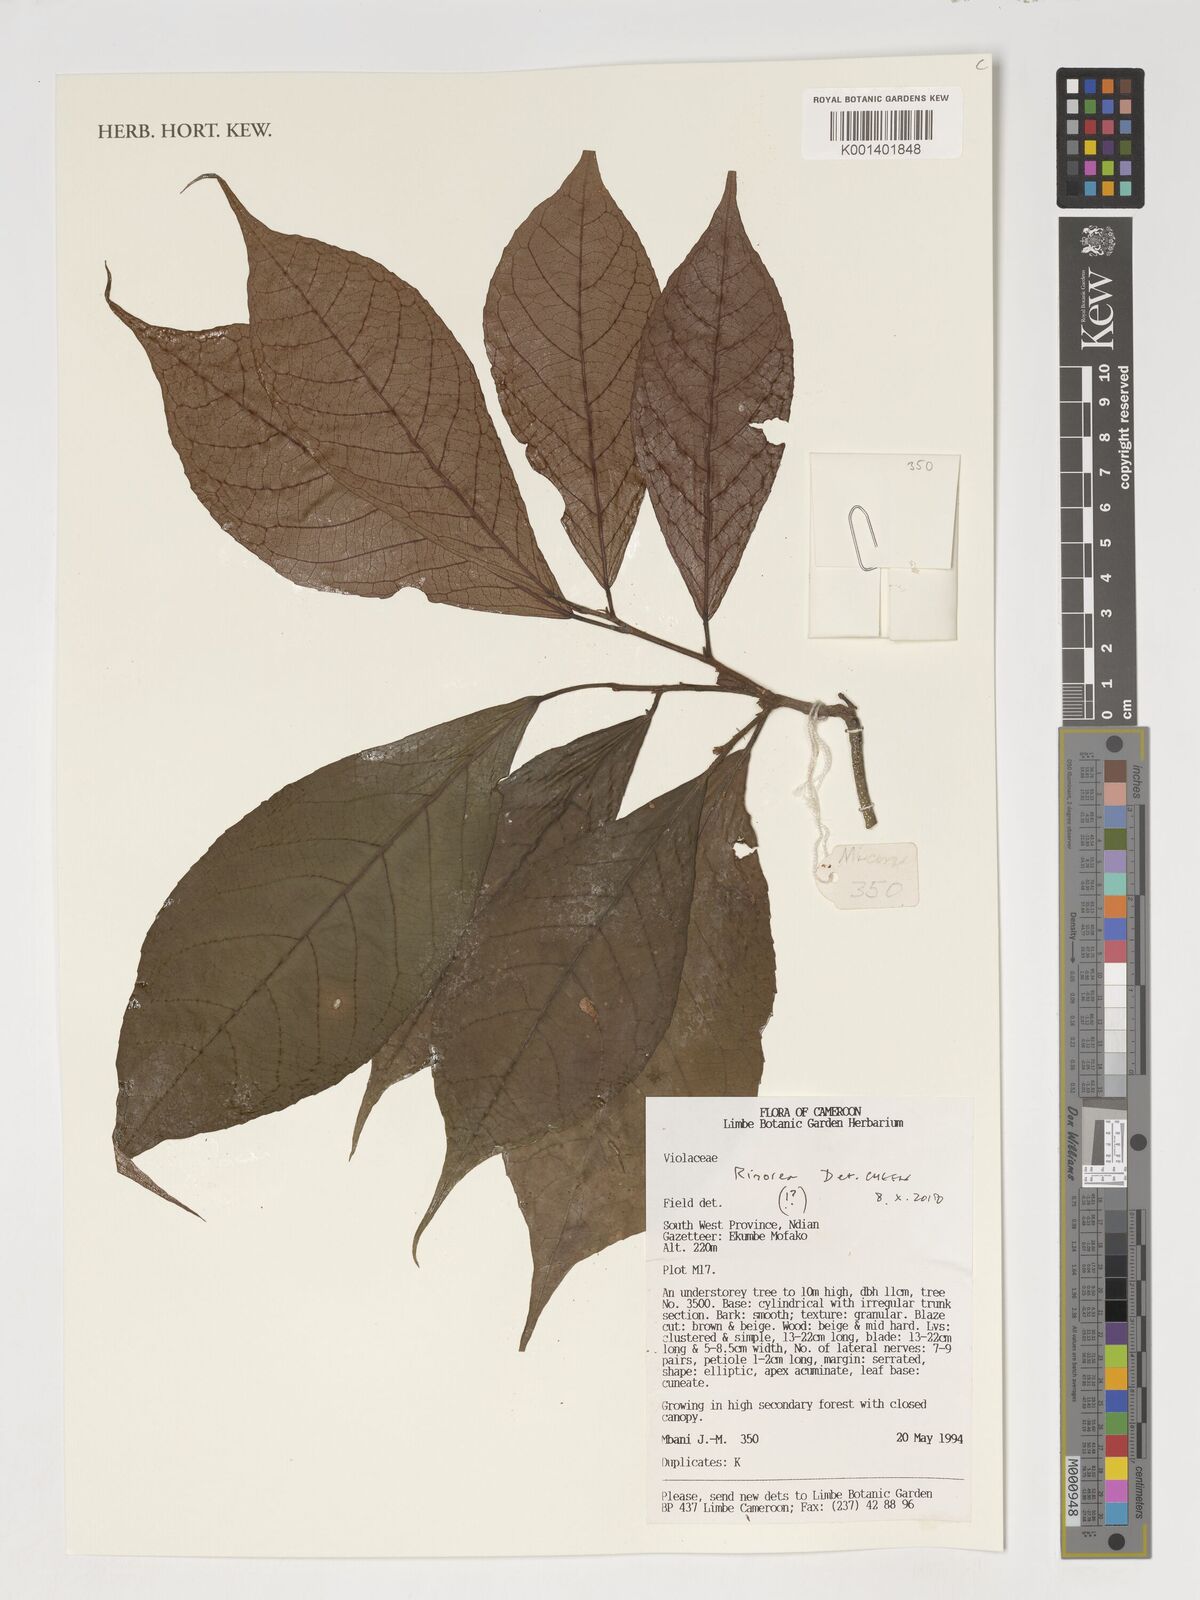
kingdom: Plantae
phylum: Tracheophyta
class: Magnoliopsida
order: Malpighiales
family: Violaceae
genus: Rinorea
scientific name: Rinorea
